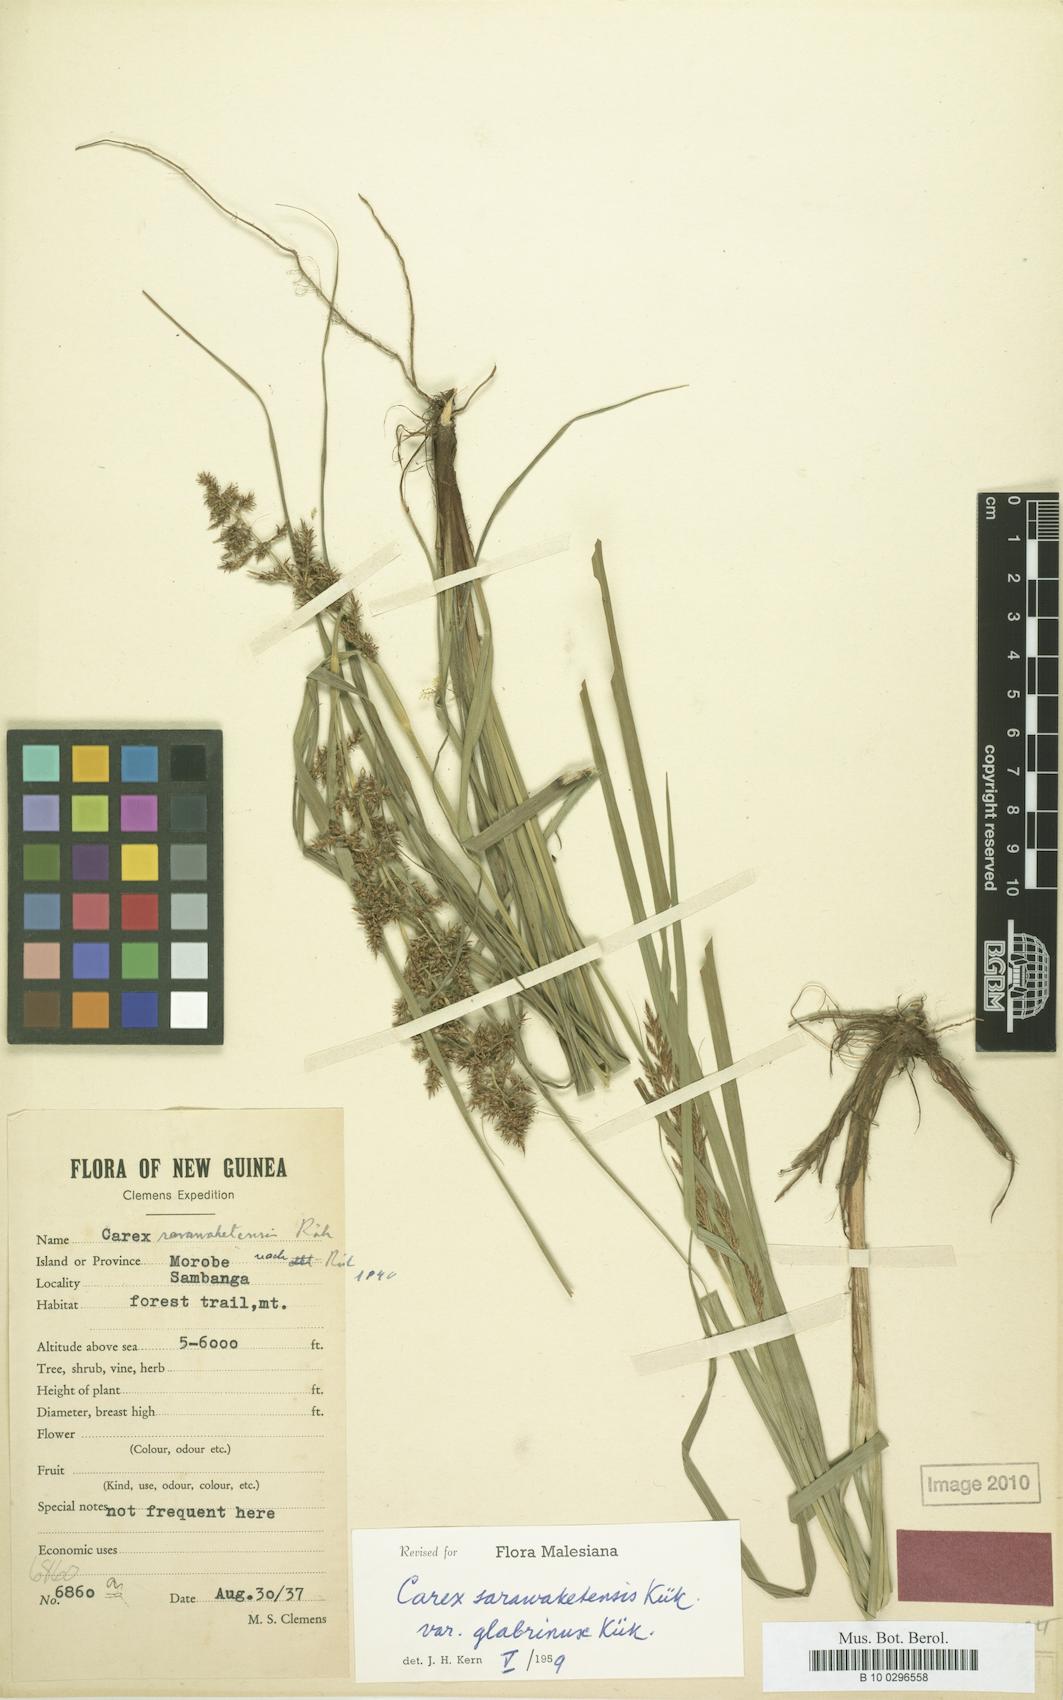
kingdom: Plantae
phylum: Tracheophyta
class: Liliopsida
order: Poales
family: Cyperaceae
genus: Carex
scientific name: Carex sarawaketensis
